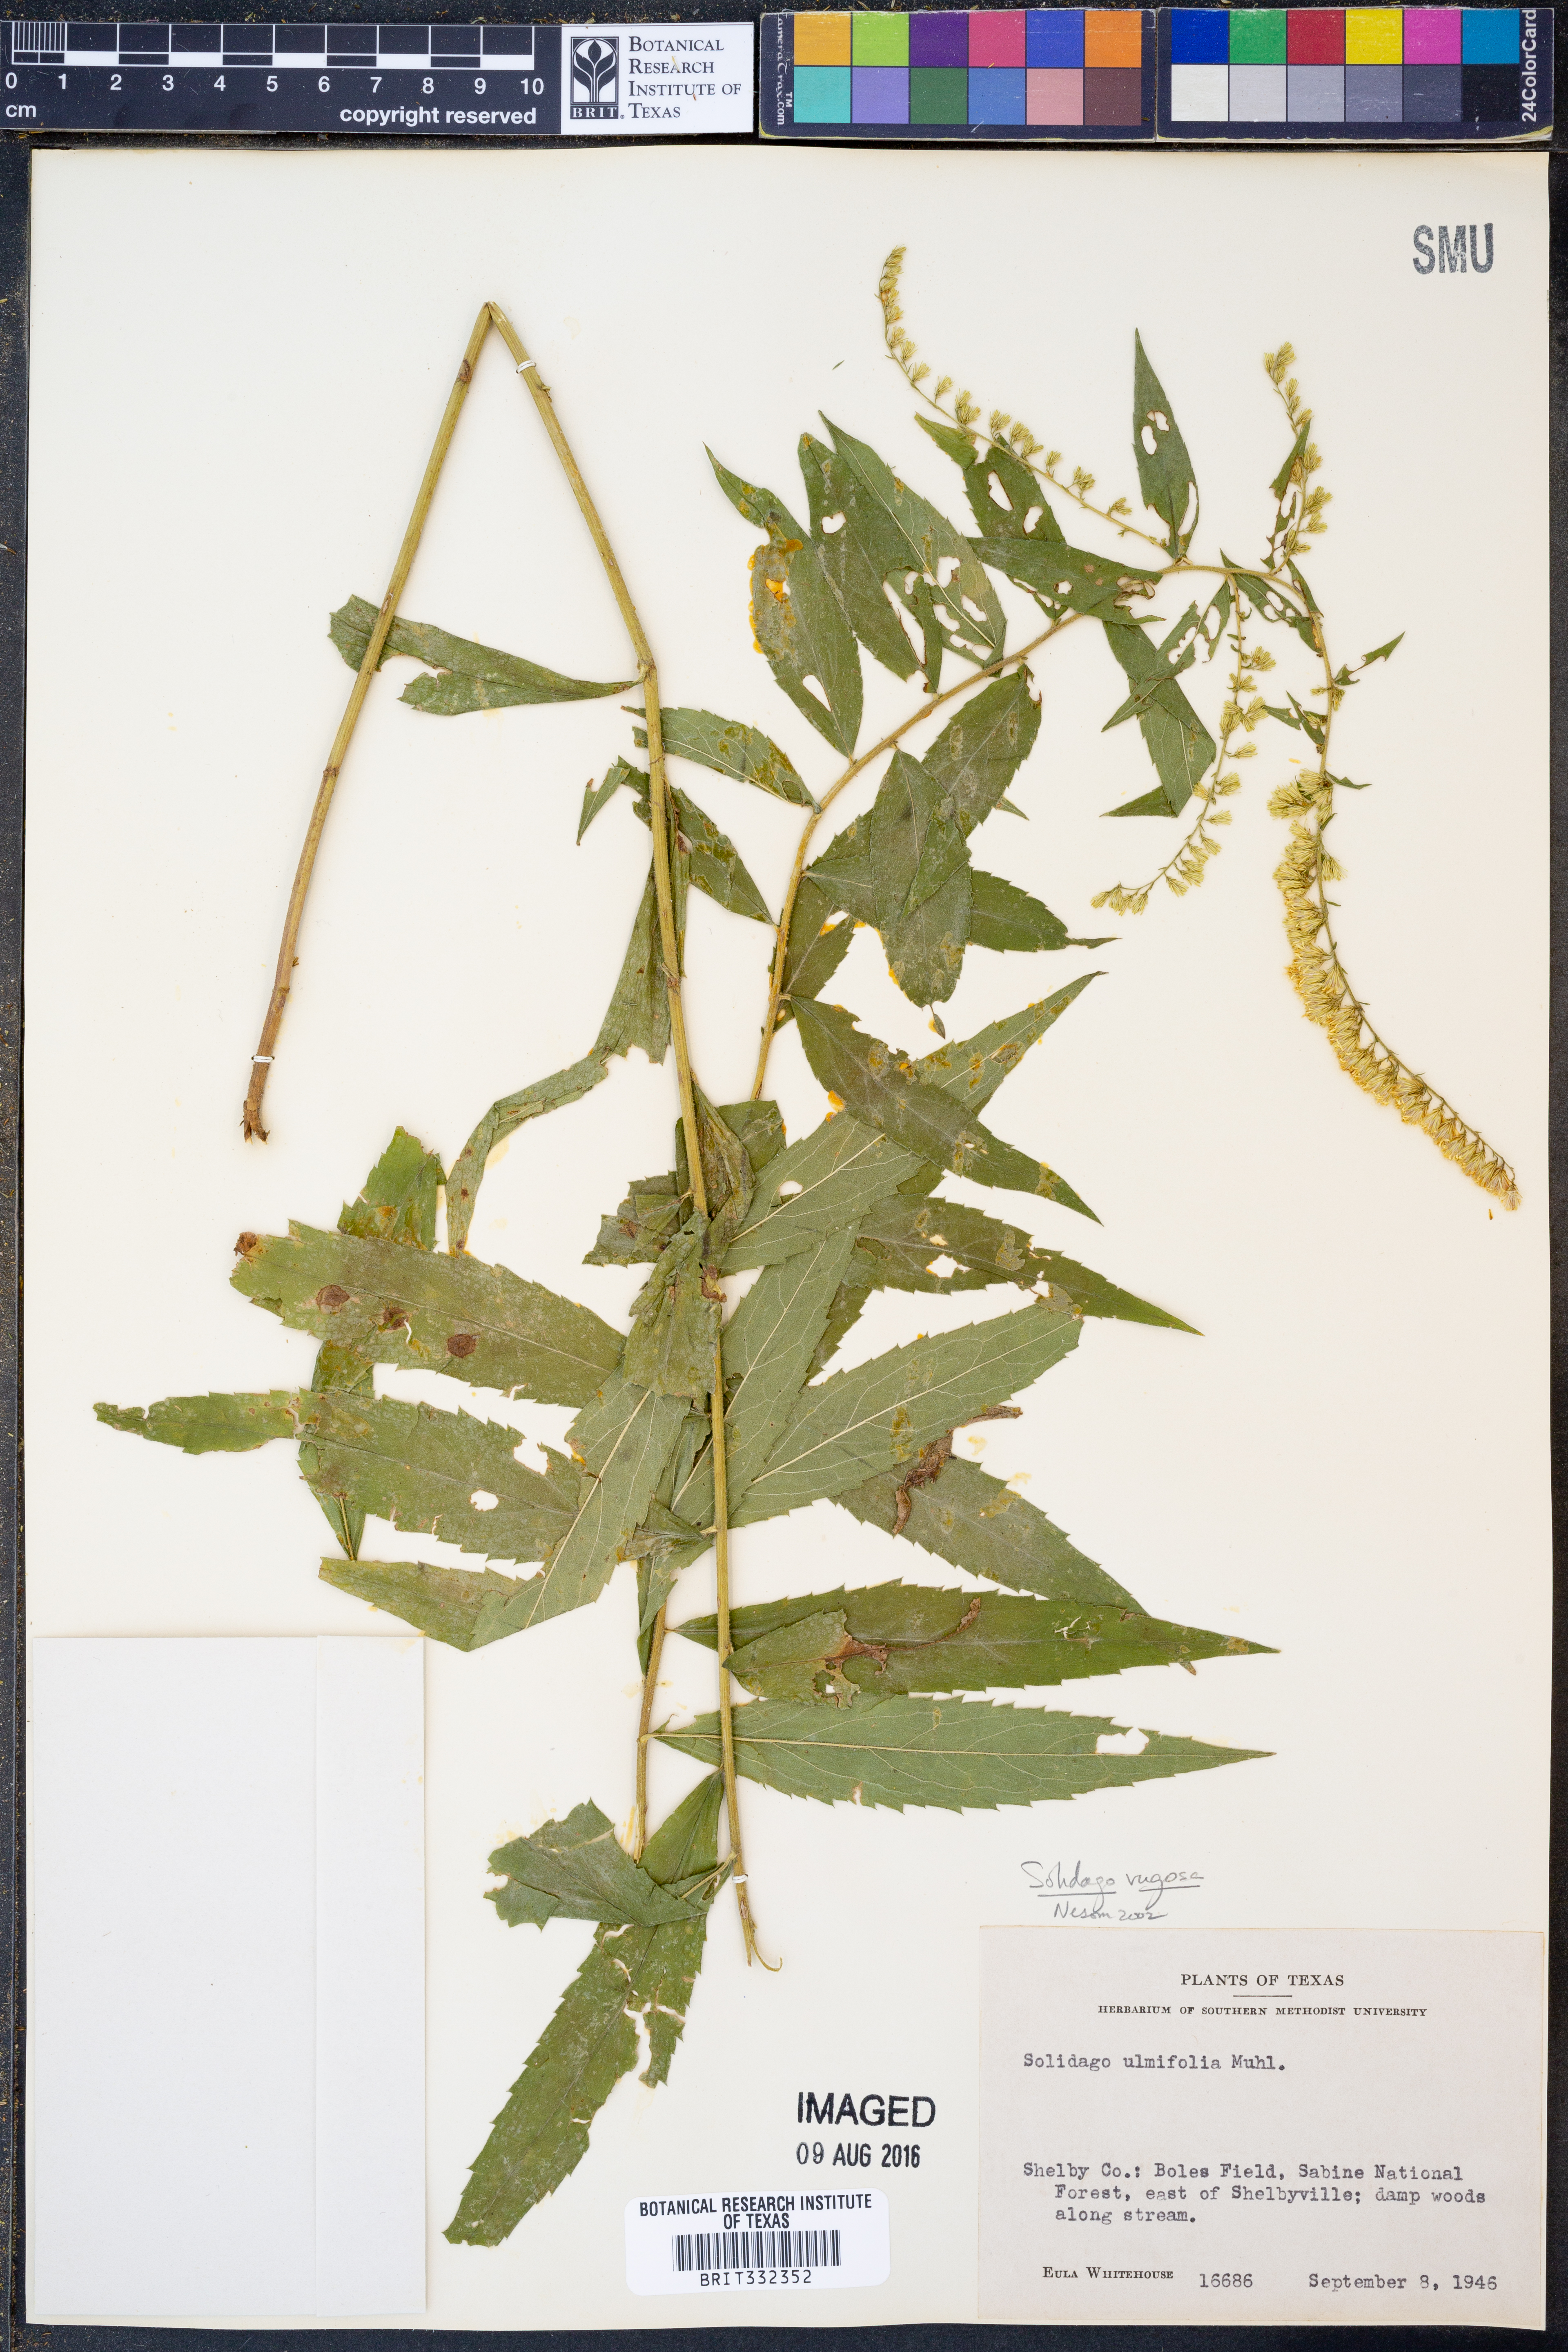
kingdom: Plantae
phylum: Tracheophyta
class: Magnoliopsida
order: Asterales
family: Asteraceae
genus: Solidago
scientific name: Solidago rugosa
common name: Rough-stemmed goldenrod
